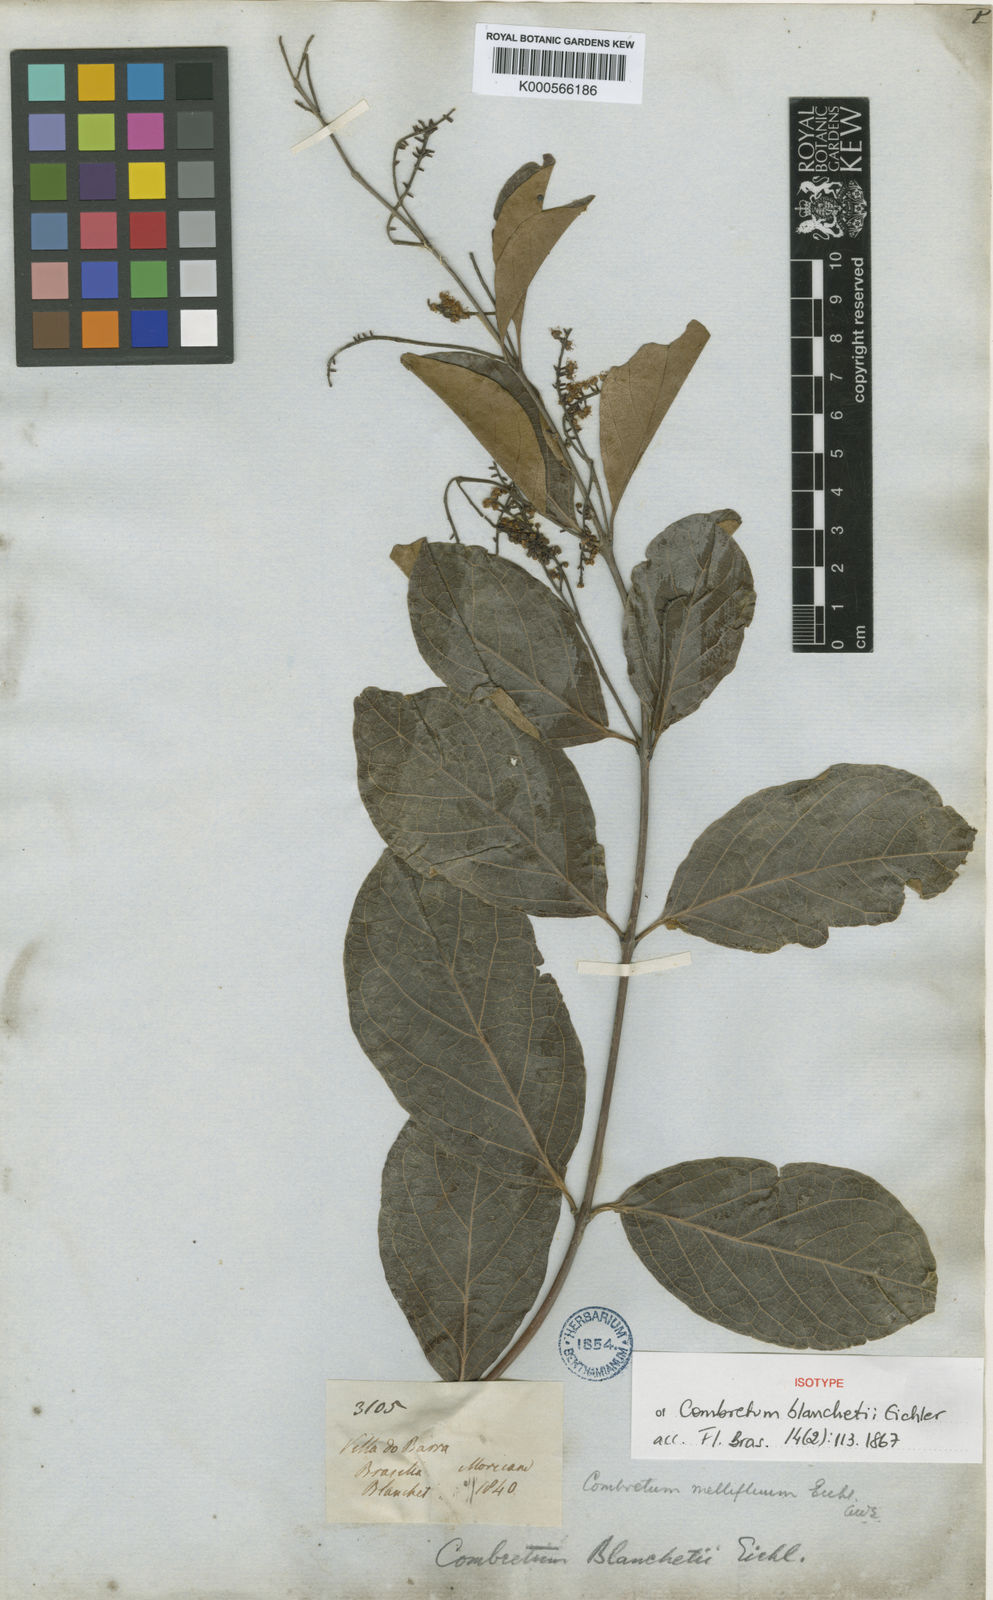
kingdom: Plantae
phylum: Tracheophyta
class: Magnoliopsida
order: Myrtales
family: Combretaceae
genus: Combretum
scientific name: Combretum mellifluum
